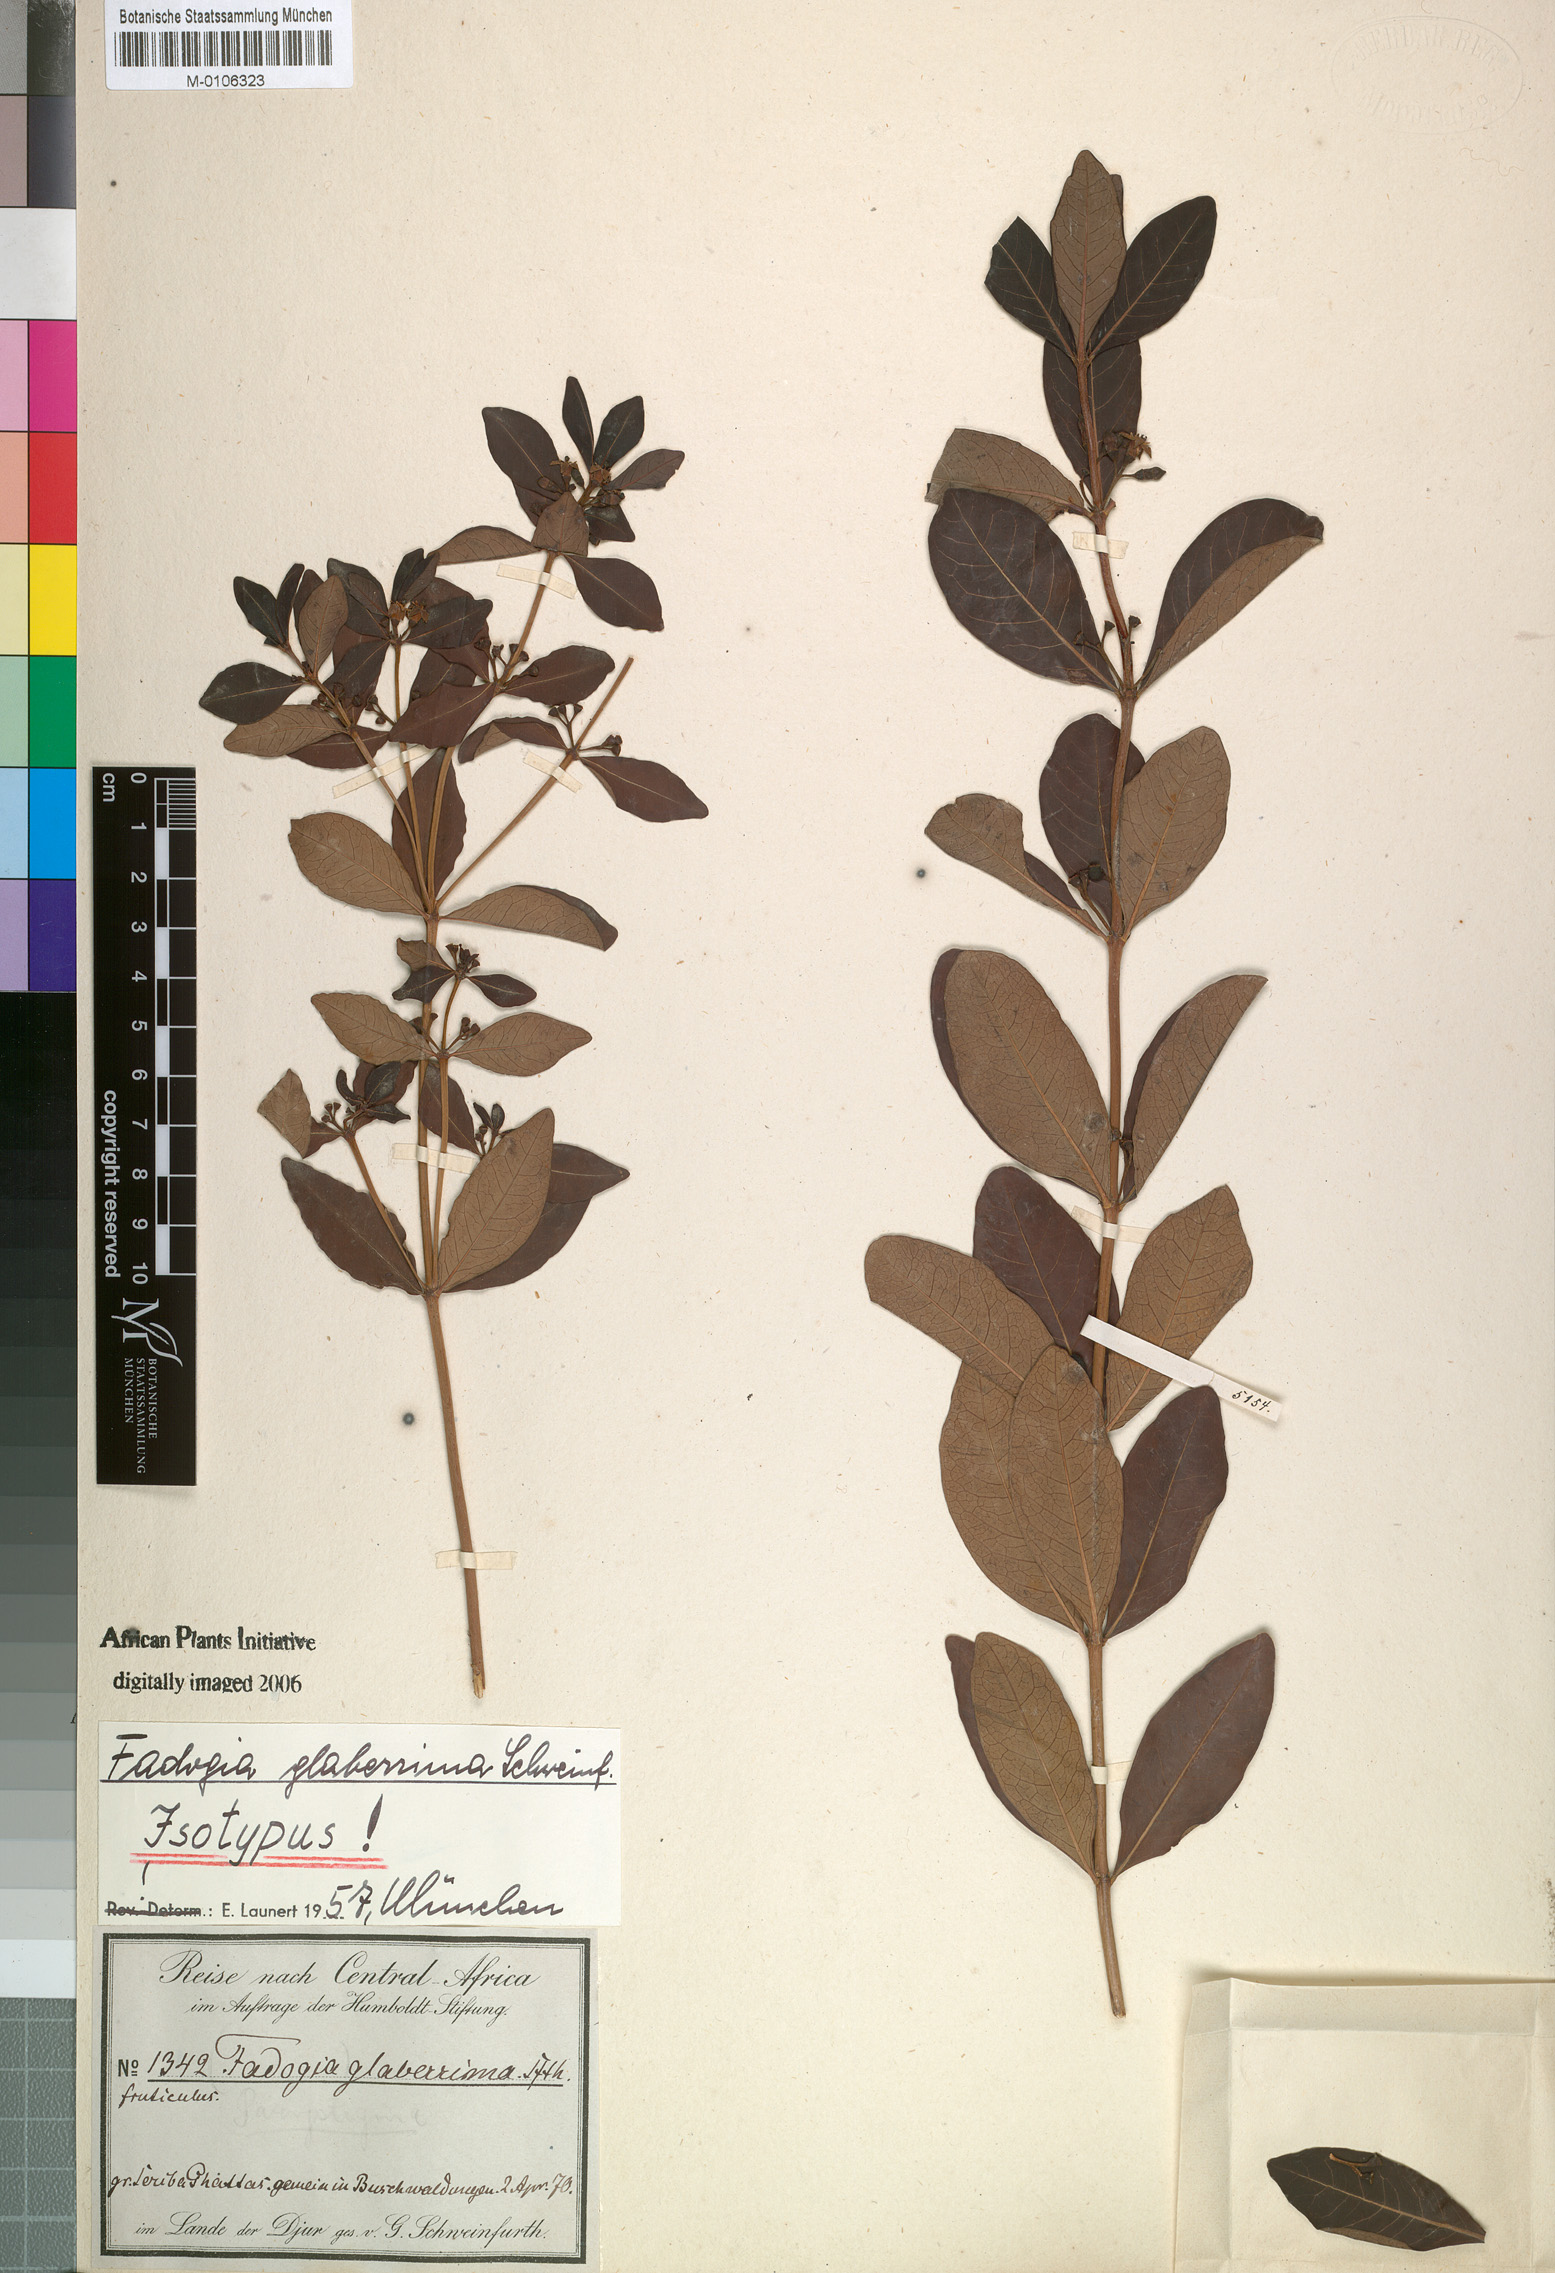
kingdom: Plantae
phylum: Tracheophyta
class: Magnoliopsida
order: Gentianales
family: Rubiaceae
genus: Fadogia
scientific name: Fadogia glaberrima
